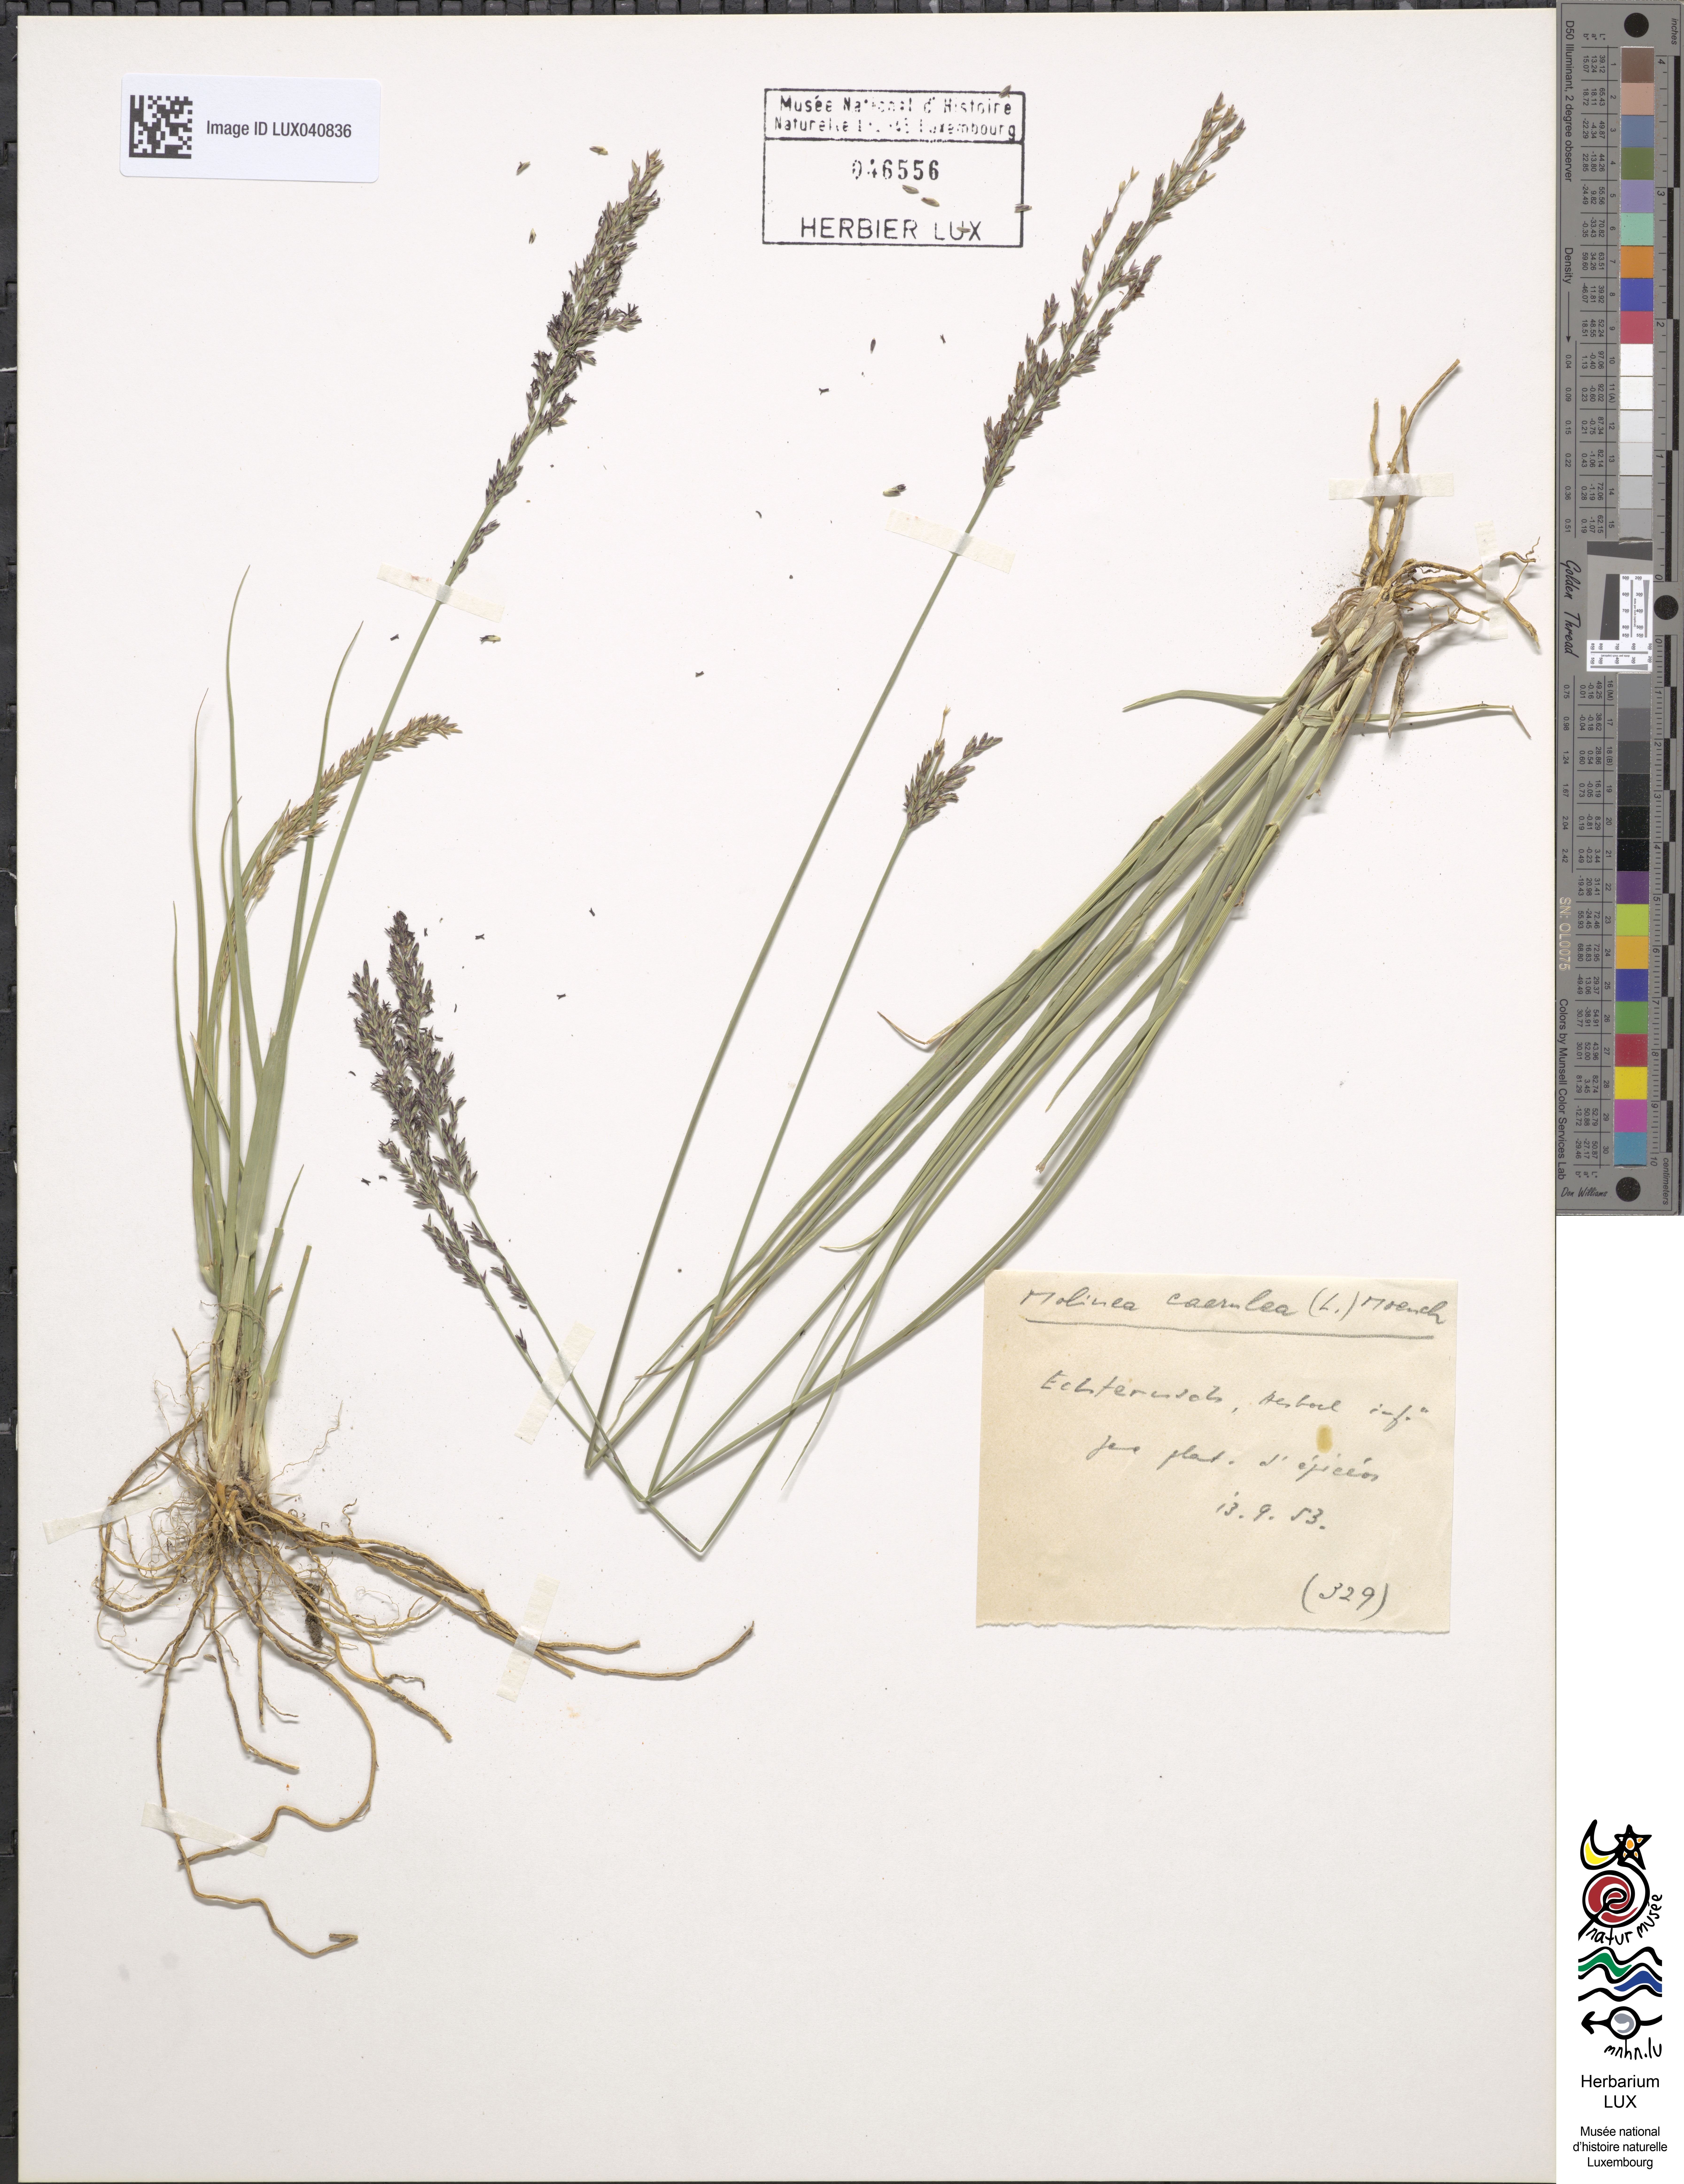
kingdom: Plantae
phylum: Tracheophyta
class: Liliopsida
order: Poales
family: Poaceae
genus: Molinia
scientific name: Molinia caerulea
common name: Purple moor-grass
